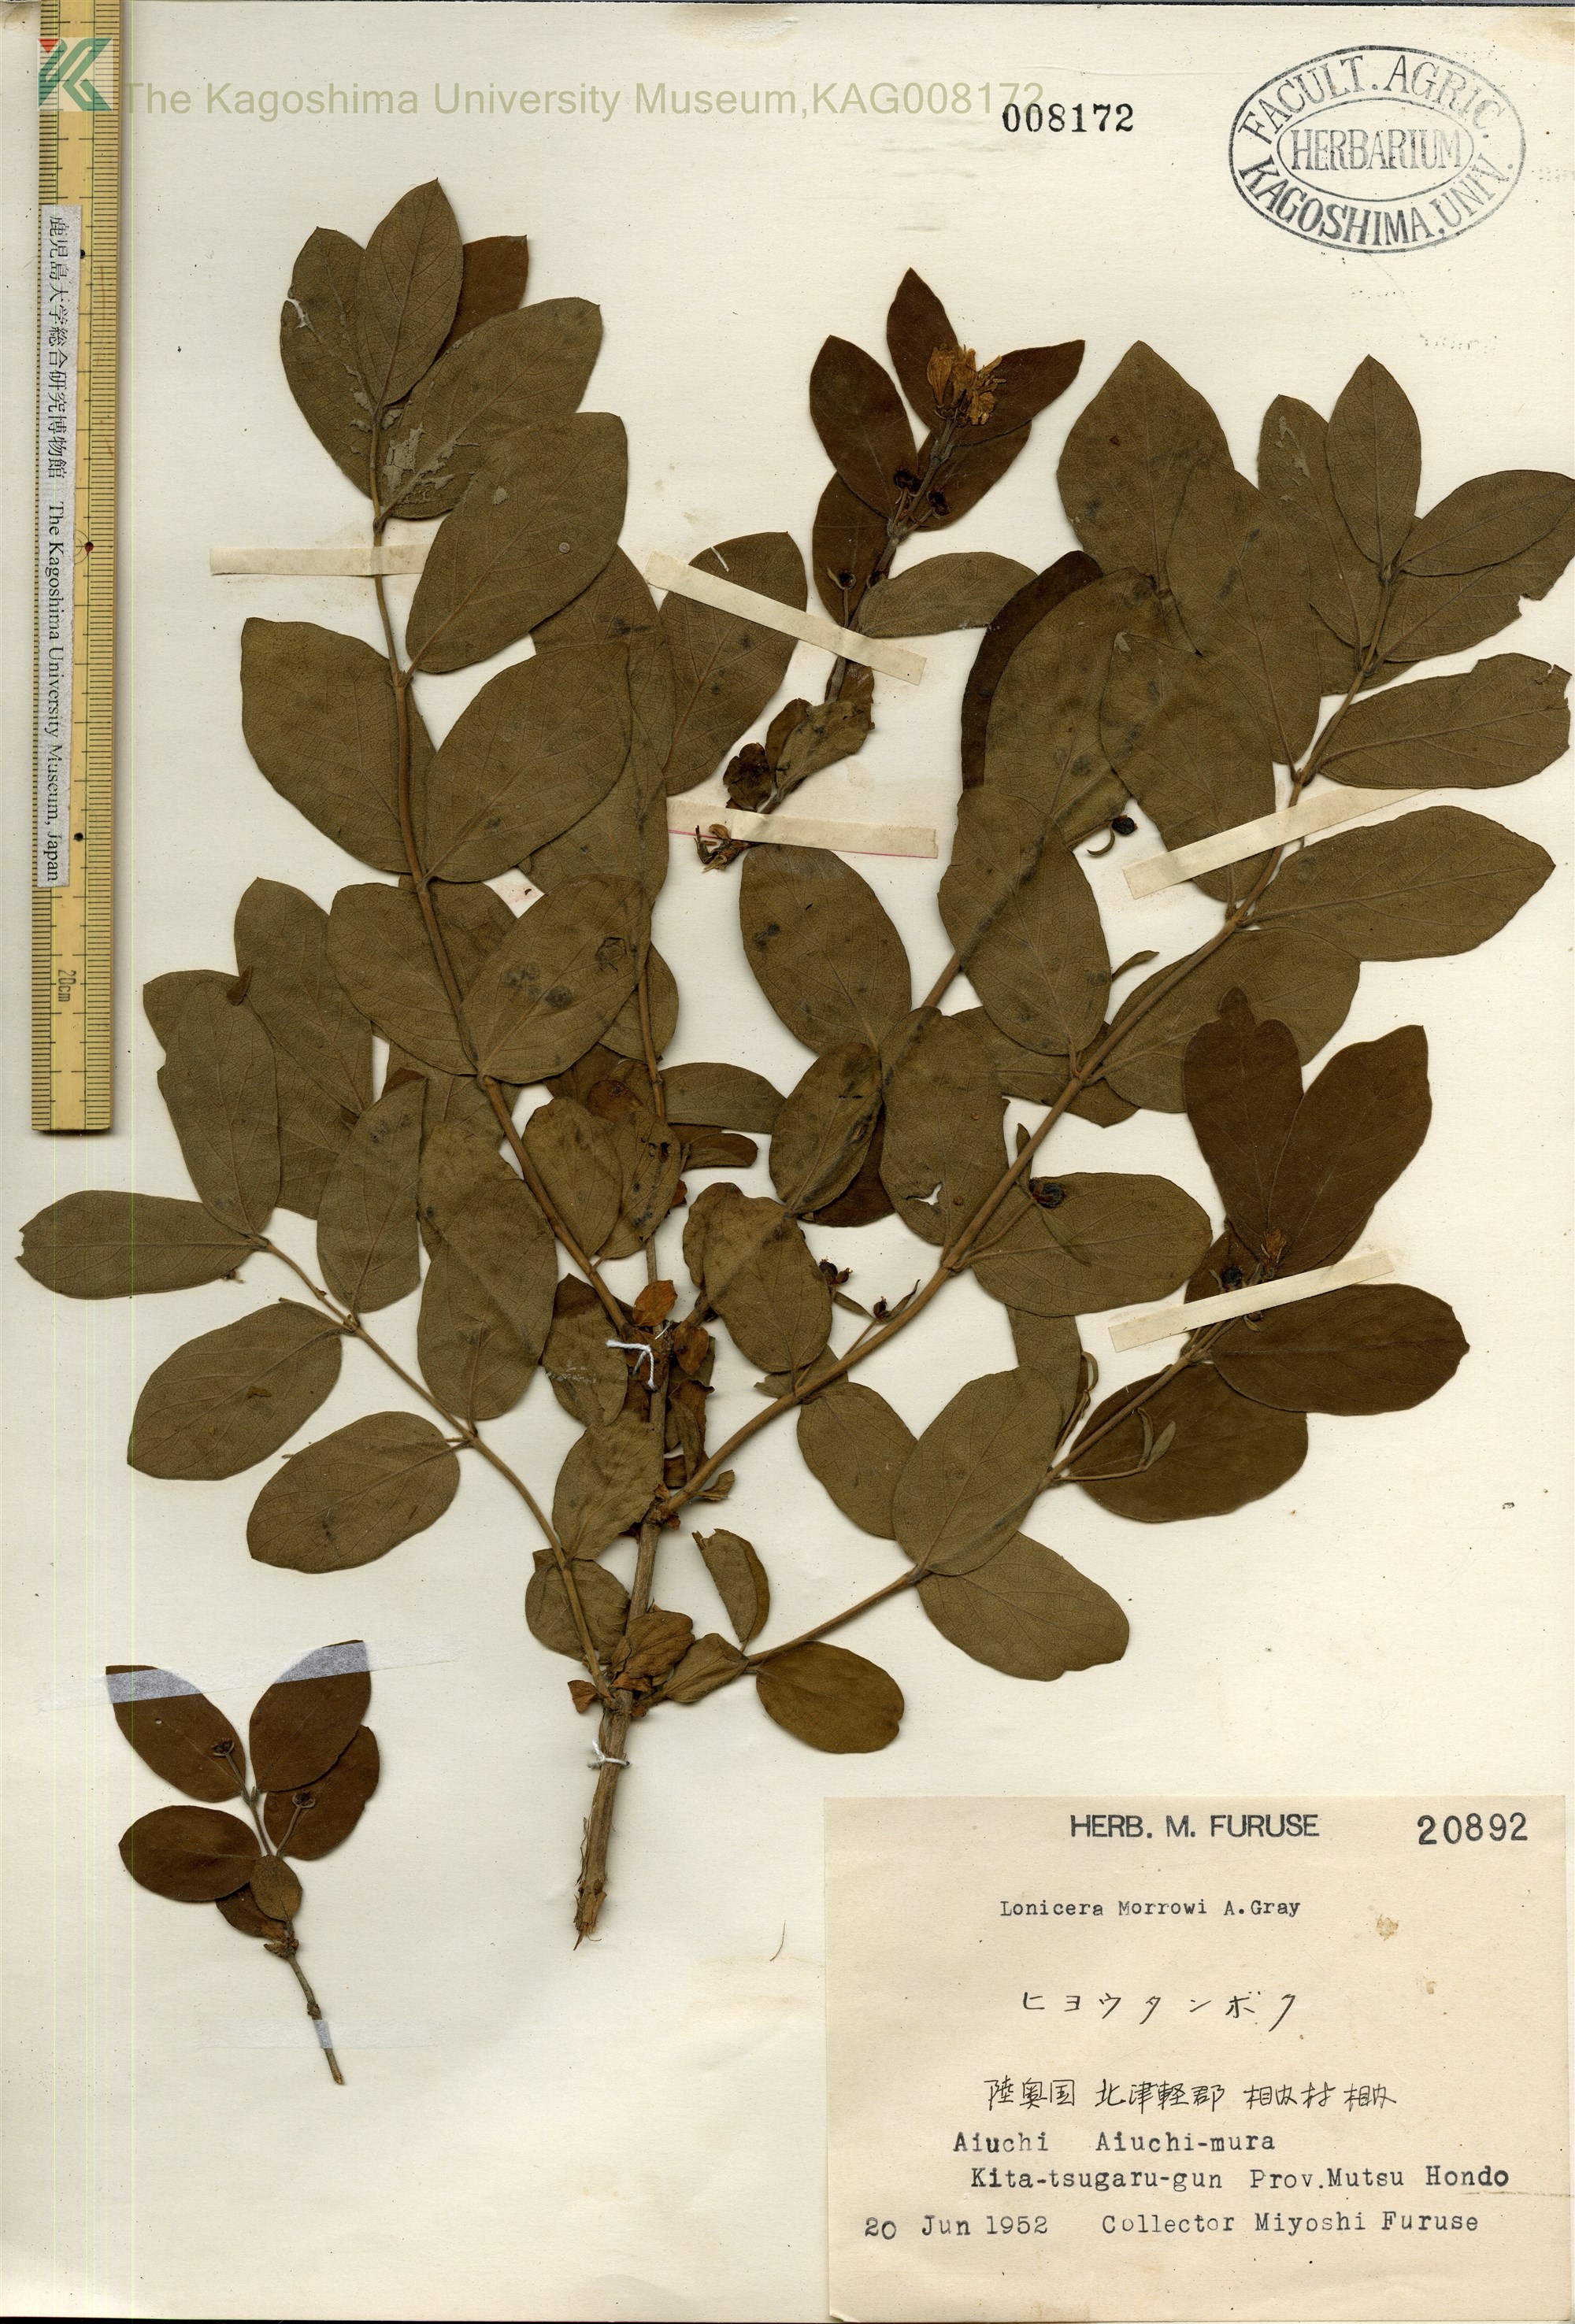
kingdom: Plantae
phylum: Tracheophyta
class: Magnoliopsida
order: Dipsacales
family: Caprifoliaceae
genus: Lonicera
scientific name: Lonicera morrowii
